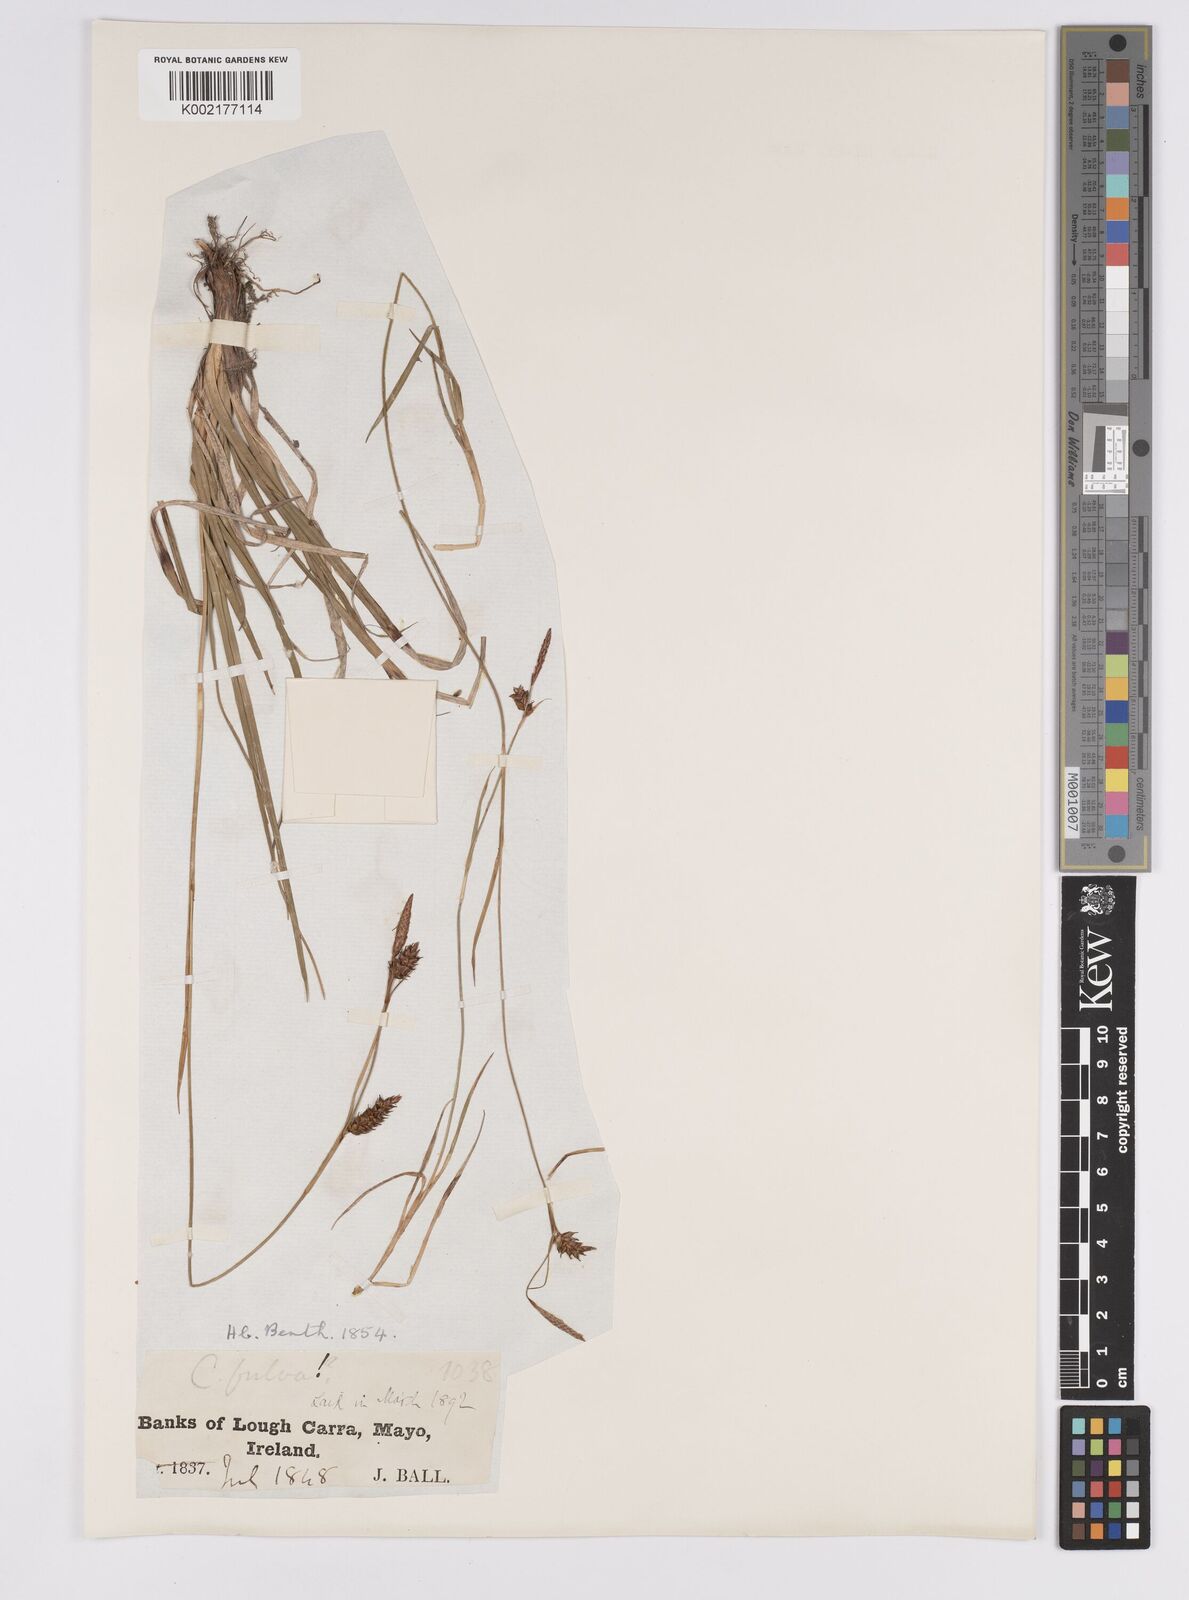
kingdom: Plantae
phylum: Tracheophyta
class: Liliopsida
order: Poales
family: Cyperaceae
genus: Carex
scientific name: Carex hostiana
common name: Tawny sedge
